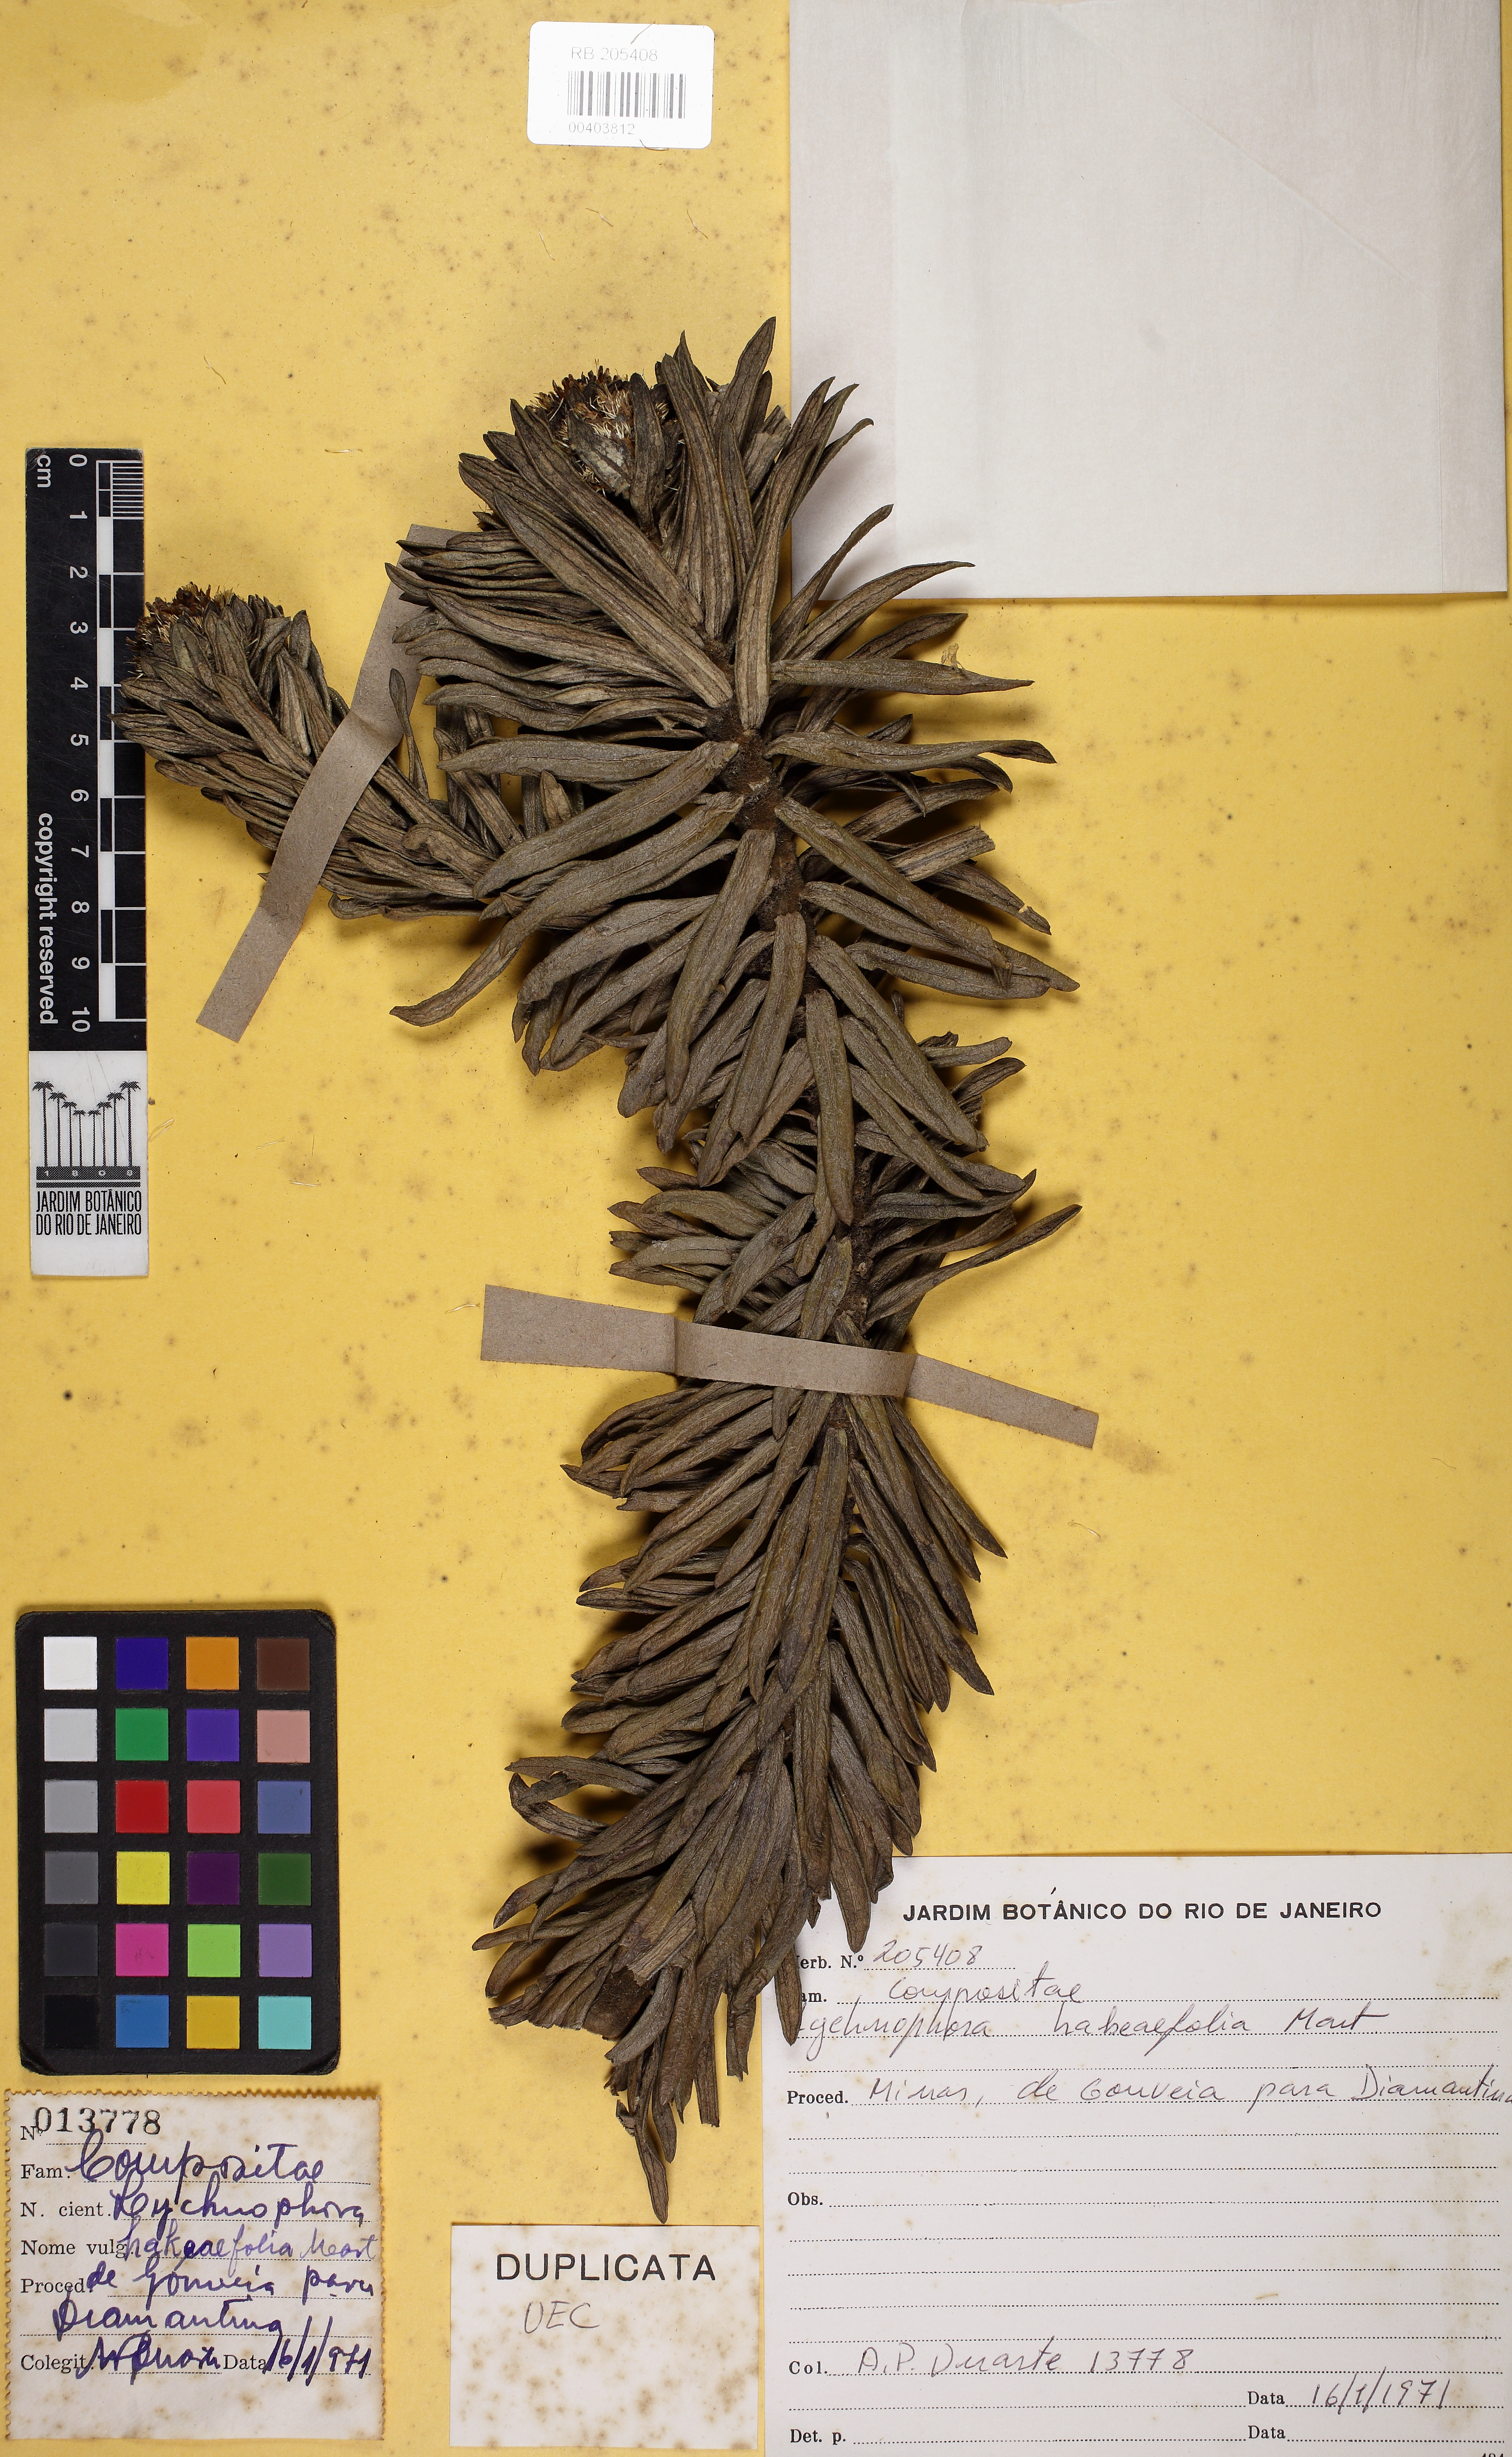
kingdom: Plantae
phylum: Tracheophyta
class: Magnoliopsida
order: Asterales
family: Asteraceae
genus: Lychnophora
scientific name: Lychnophora diamantinana
